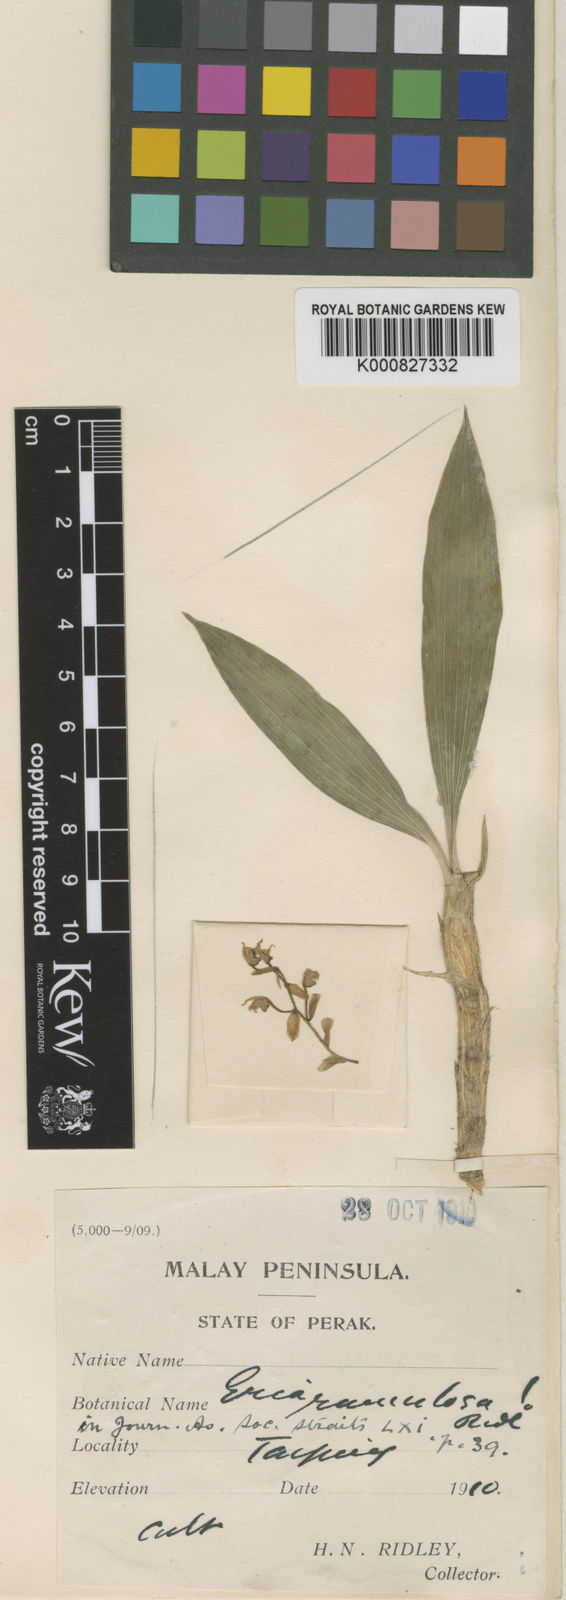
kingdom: Plantae
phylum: Tracheophyta
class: Liliopsida
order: Asparagales
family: Orchidaceae
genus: Pinalia
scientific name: Pinalia ramulosa
